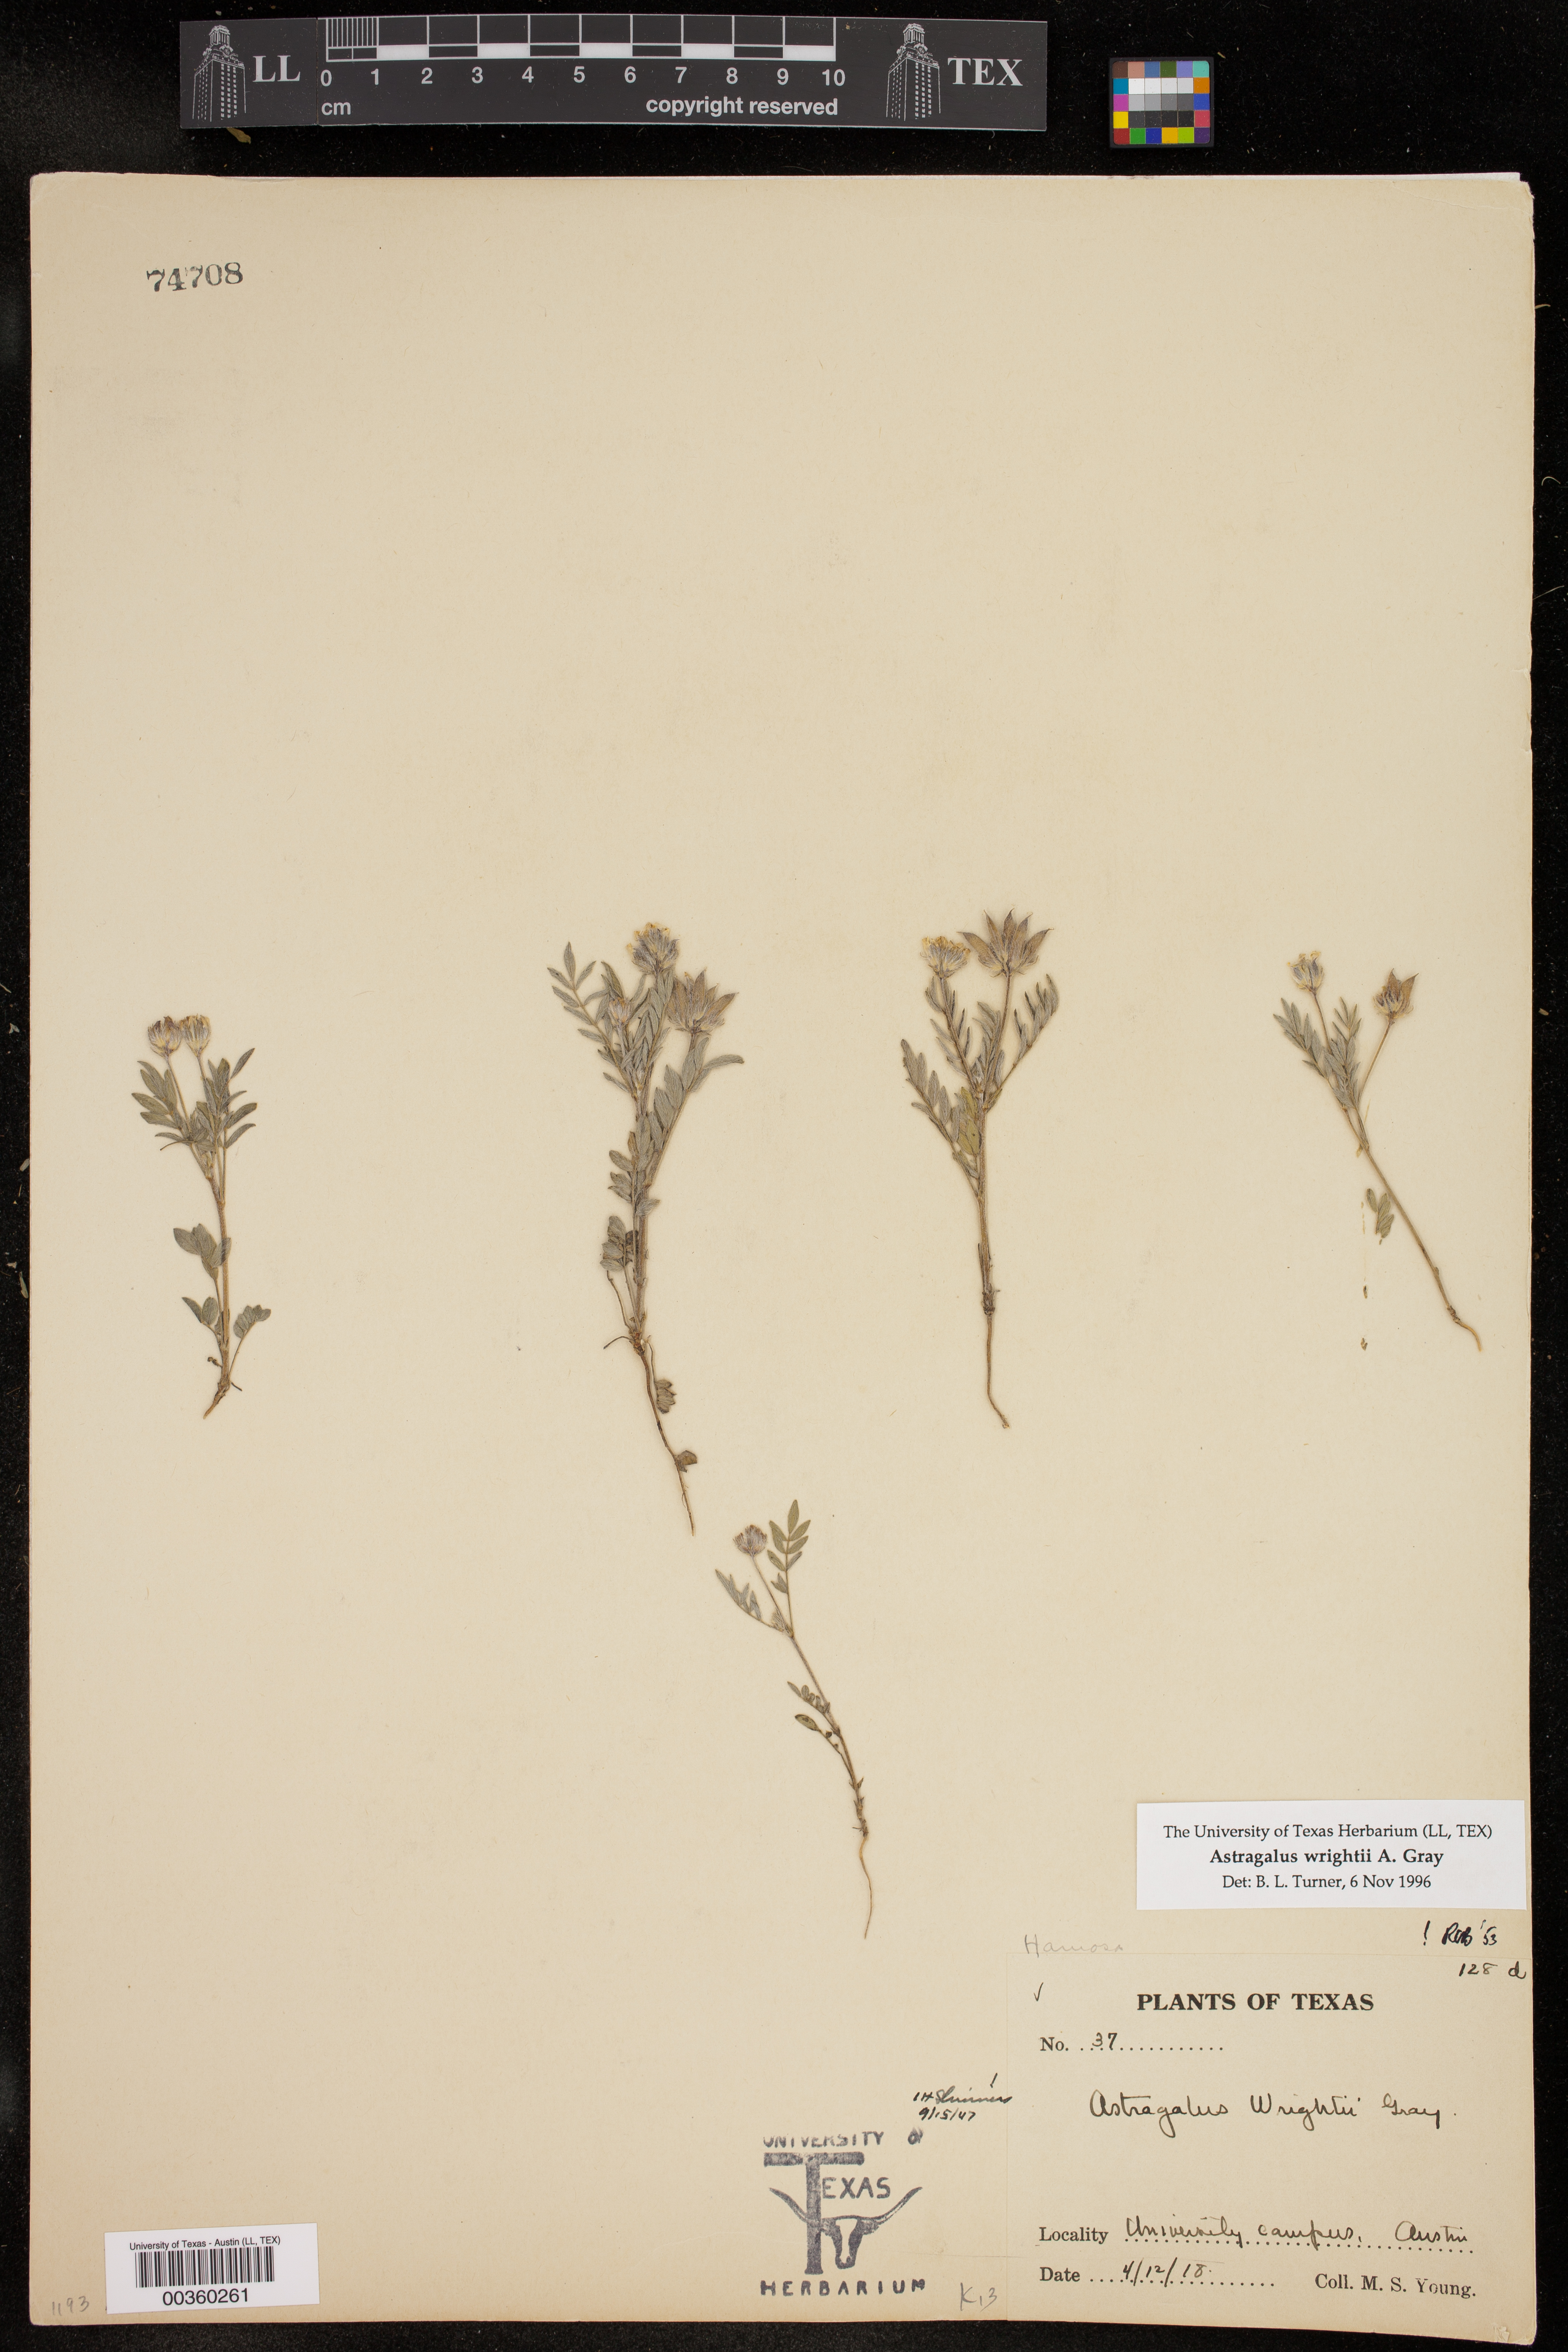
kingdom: Plantae
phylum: Tracheophyta
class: Magnoliopsida
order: Fabales
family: Fabaceae
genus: Astragalus
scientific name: Astragalus wrightii
